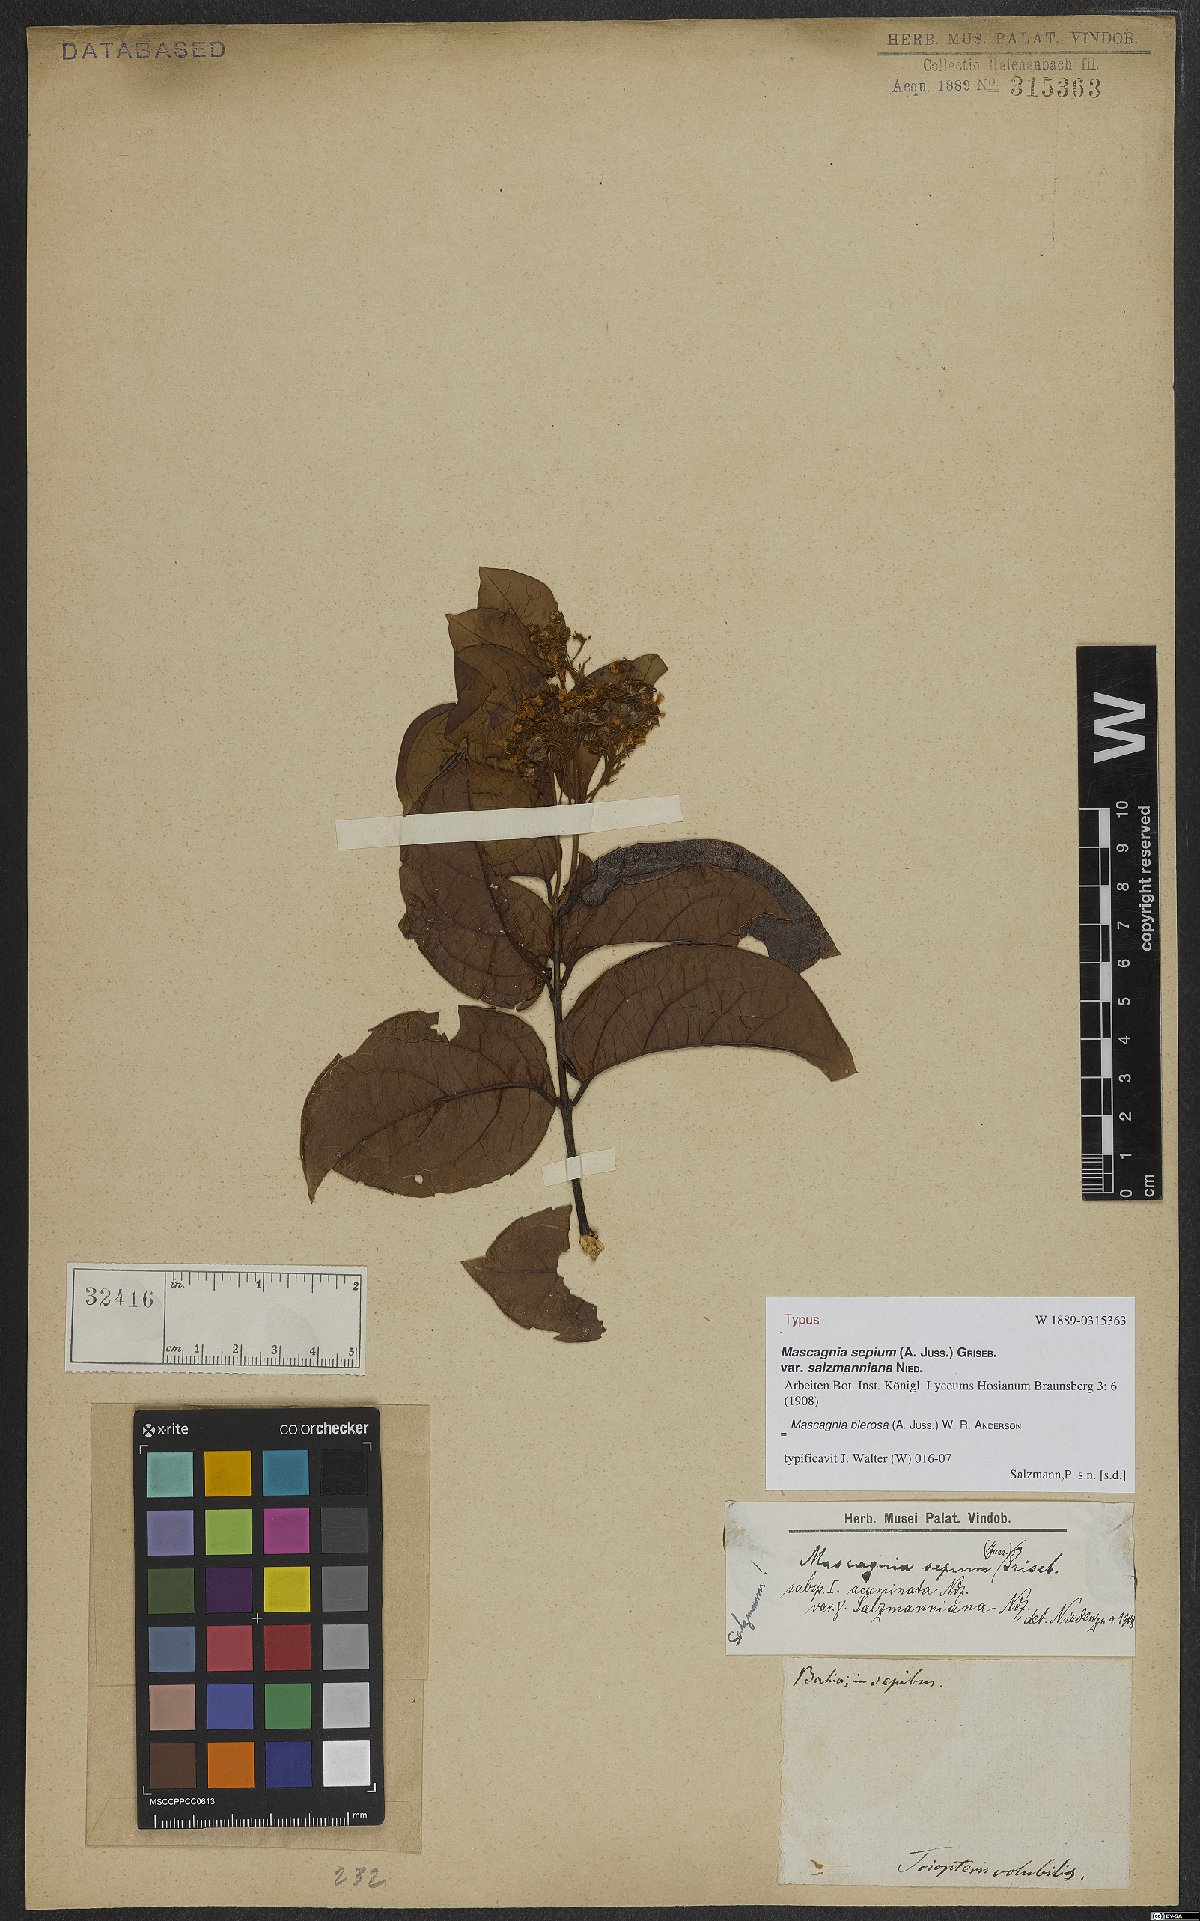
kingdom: Plantae
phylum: Tracheophyta
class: Magnoliopsida
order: Malpighiales
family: Malpighiaceae
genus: Mascagnia
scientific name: Mascagnia bierosa
